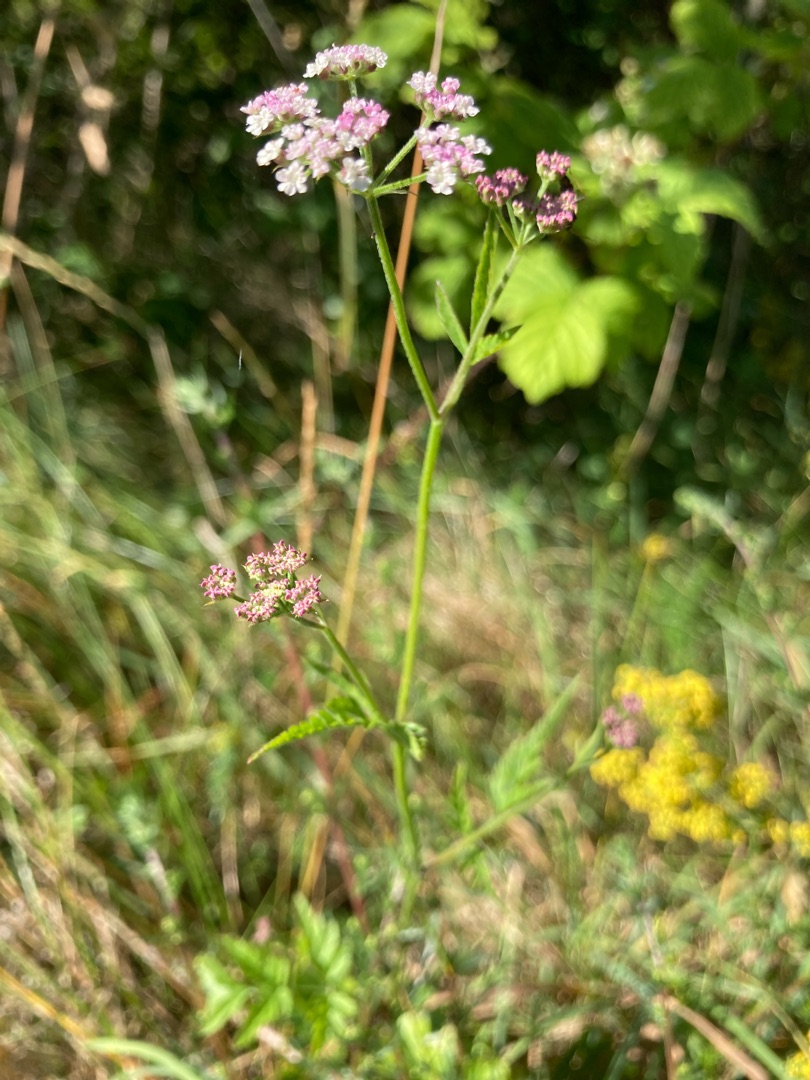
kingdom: Plantae
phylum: Tracheophyta
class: Magnoliopsida
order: Apiales
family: Apiaceae
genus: Torilis
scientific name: Torilis japonica
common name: Hvas randfrø
